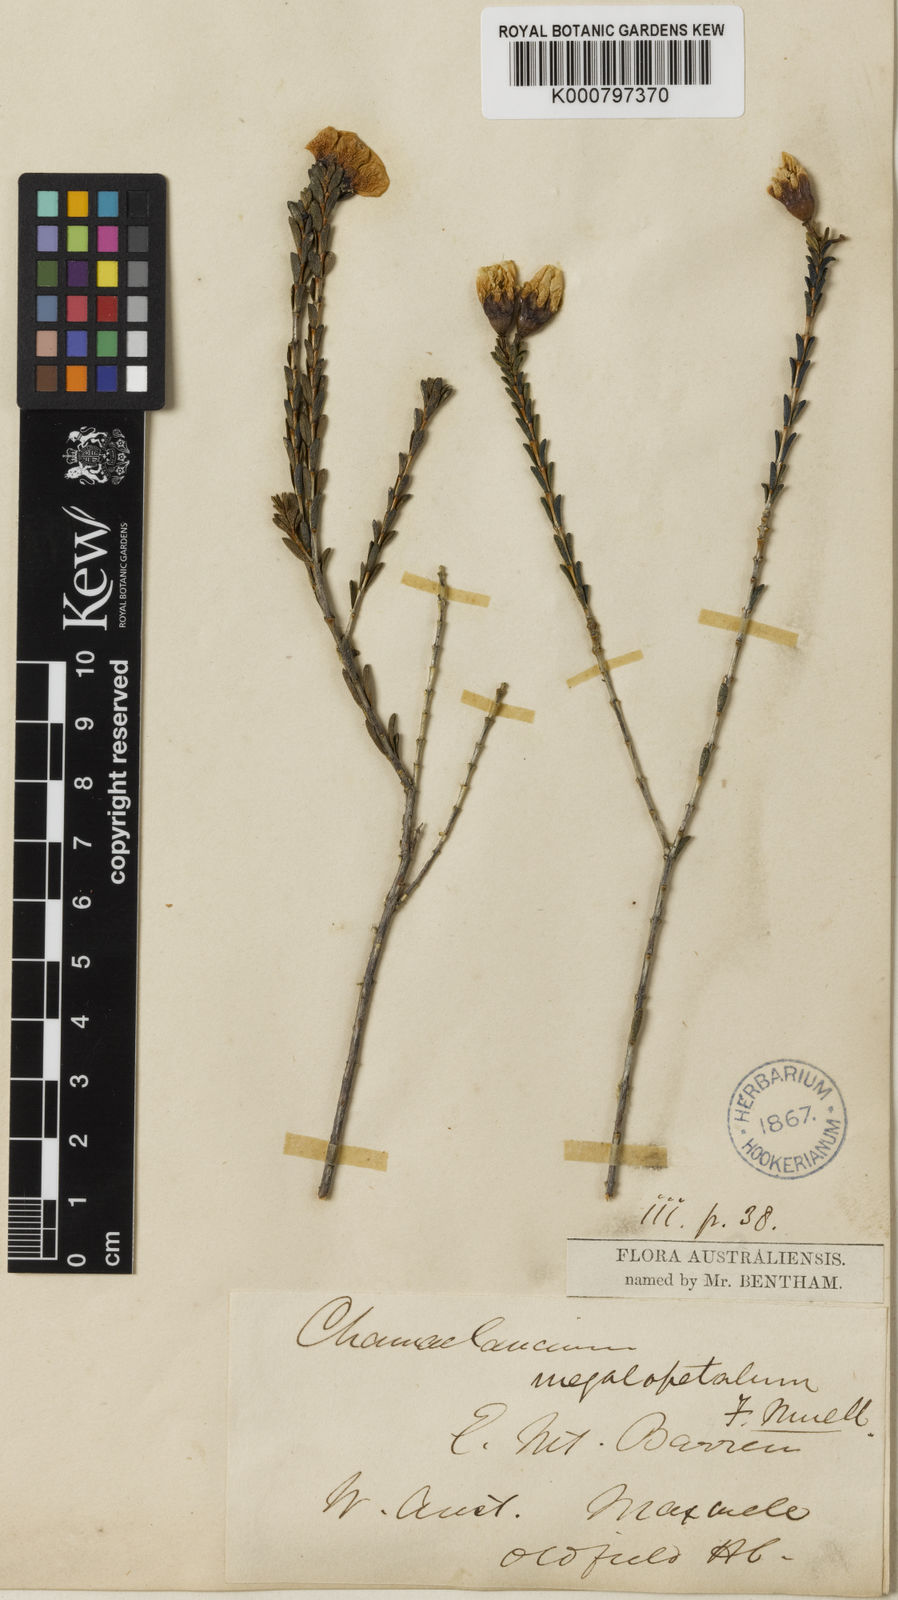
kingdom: Plantae
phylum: Tracheophyta
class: Magnoliopsida
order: Myrtales
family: Myrtaceae
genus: Chamelaucium
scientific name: Chamelaucium megalopetalum
